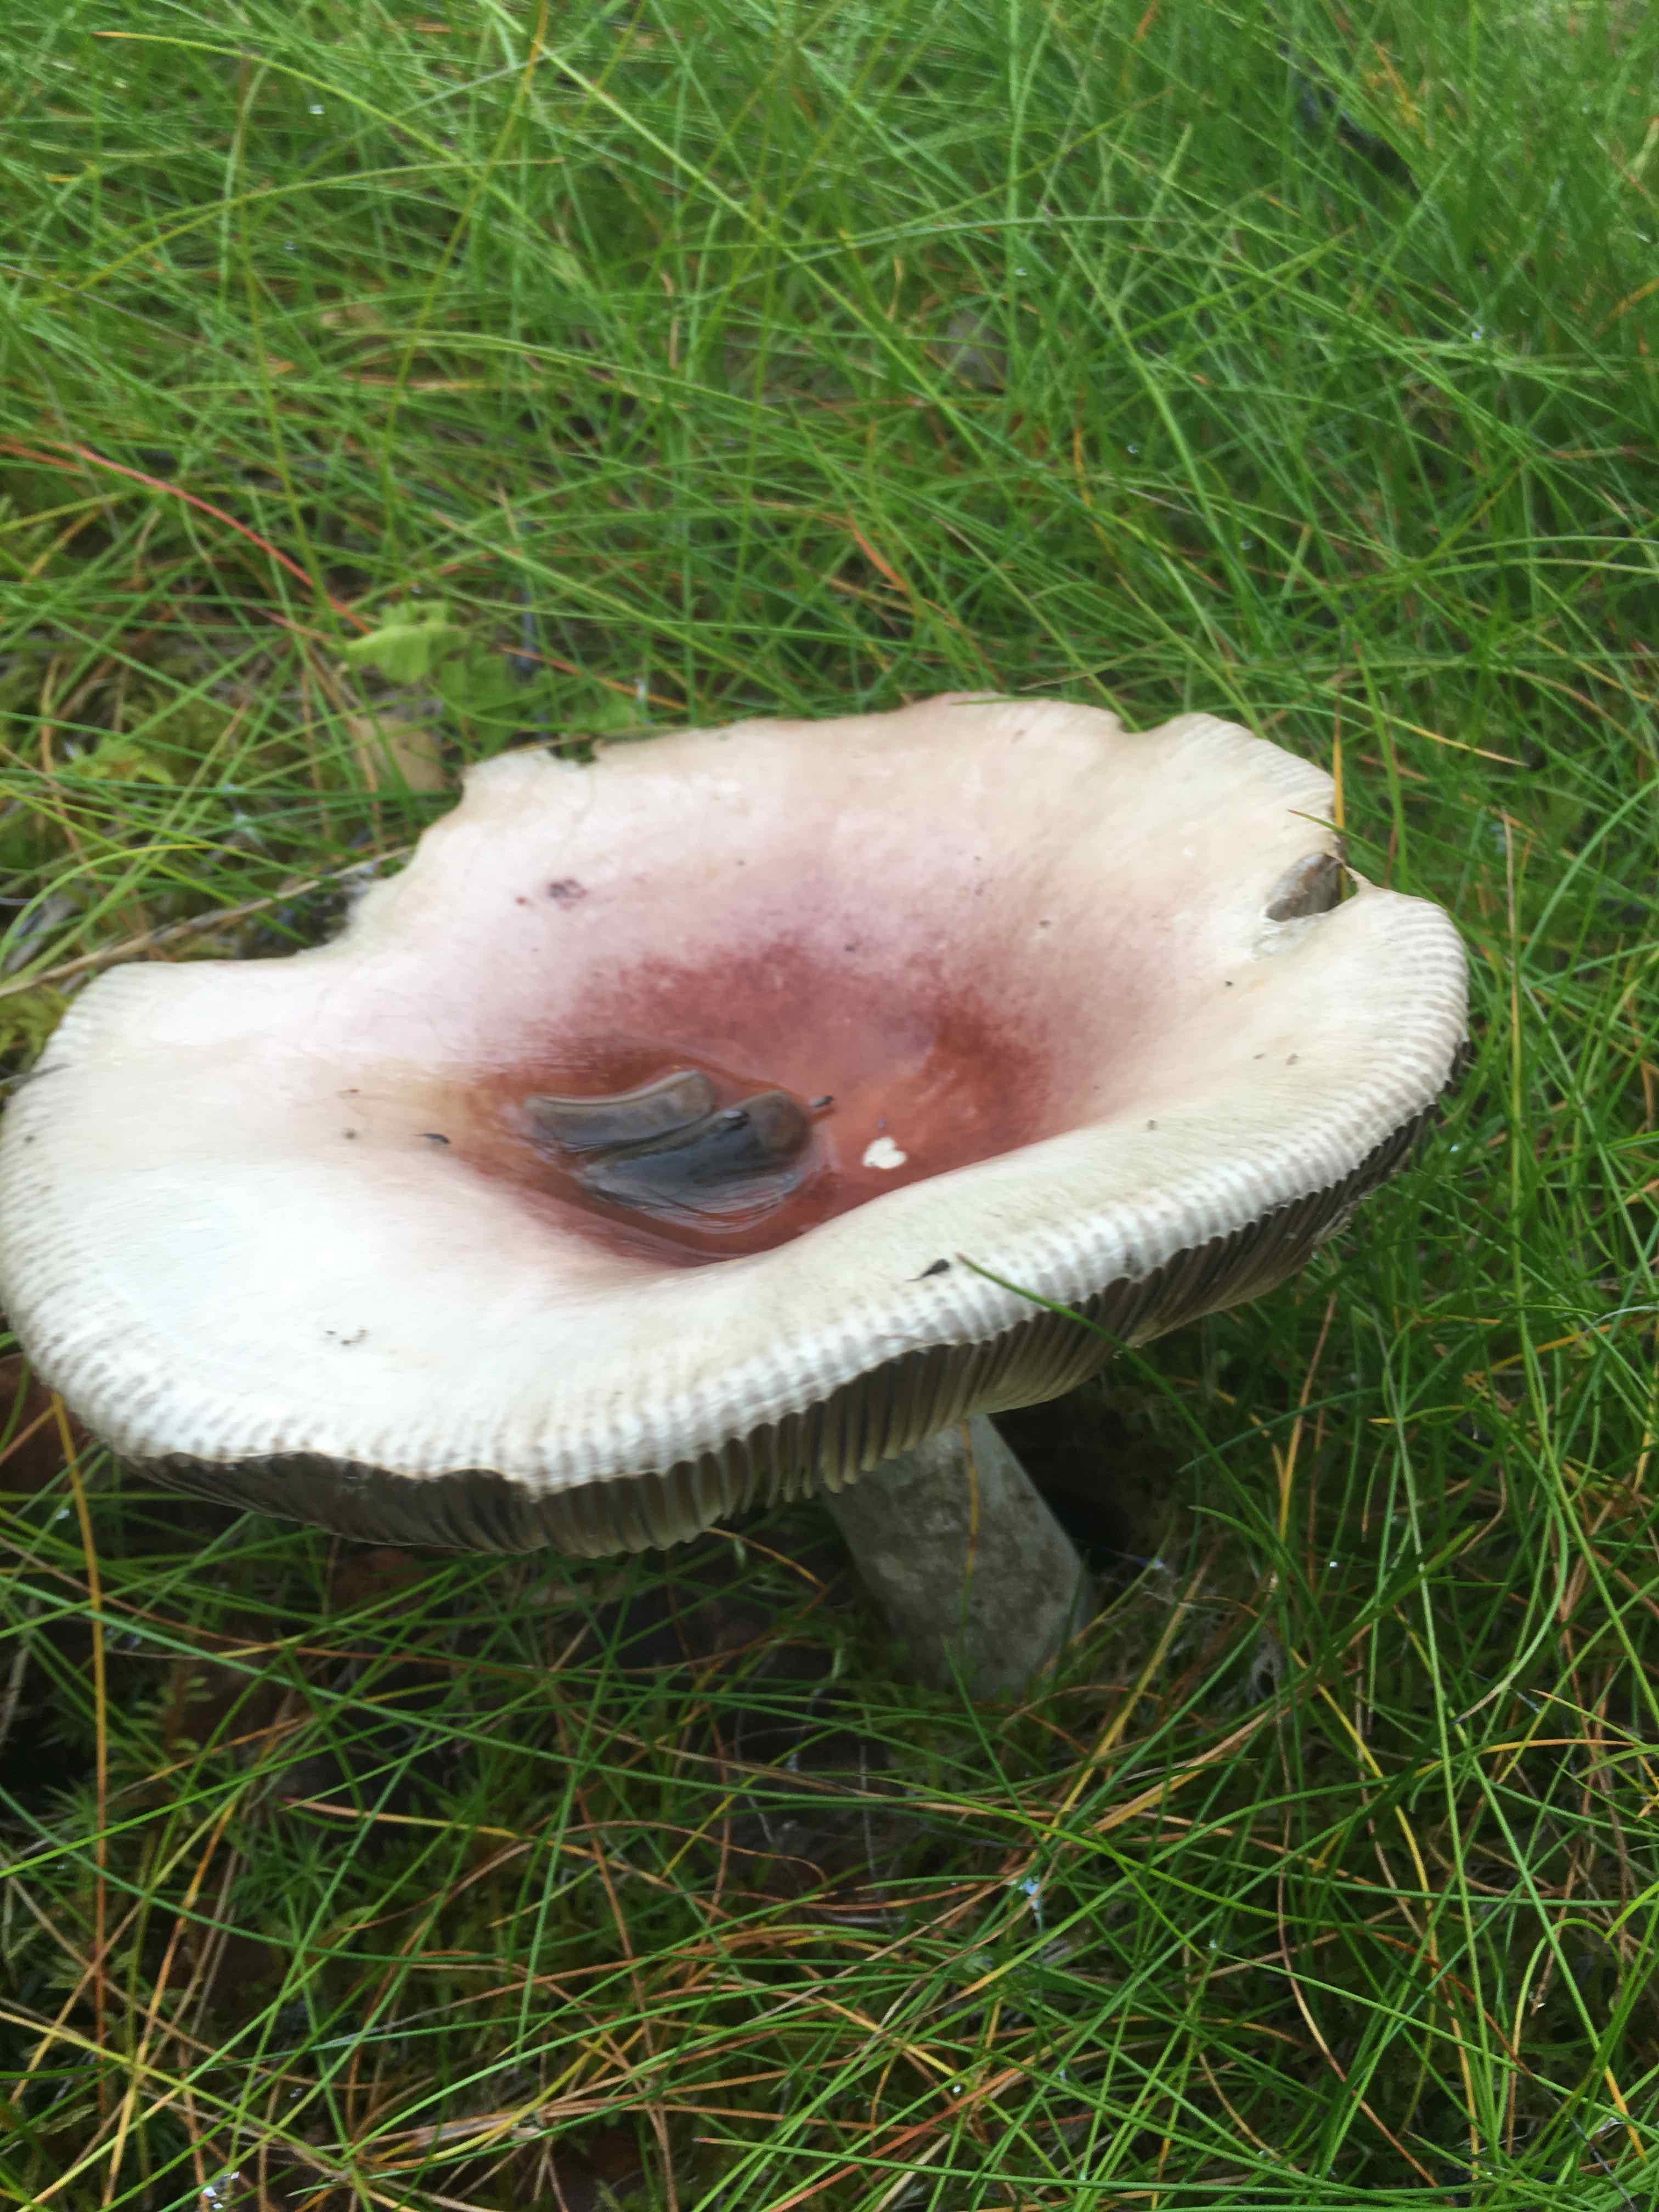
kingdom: Fungi
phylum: Basidiomycota
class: Agaricomycetes
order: Russulales
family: Russulaceae
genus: Russula
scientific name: Russula
